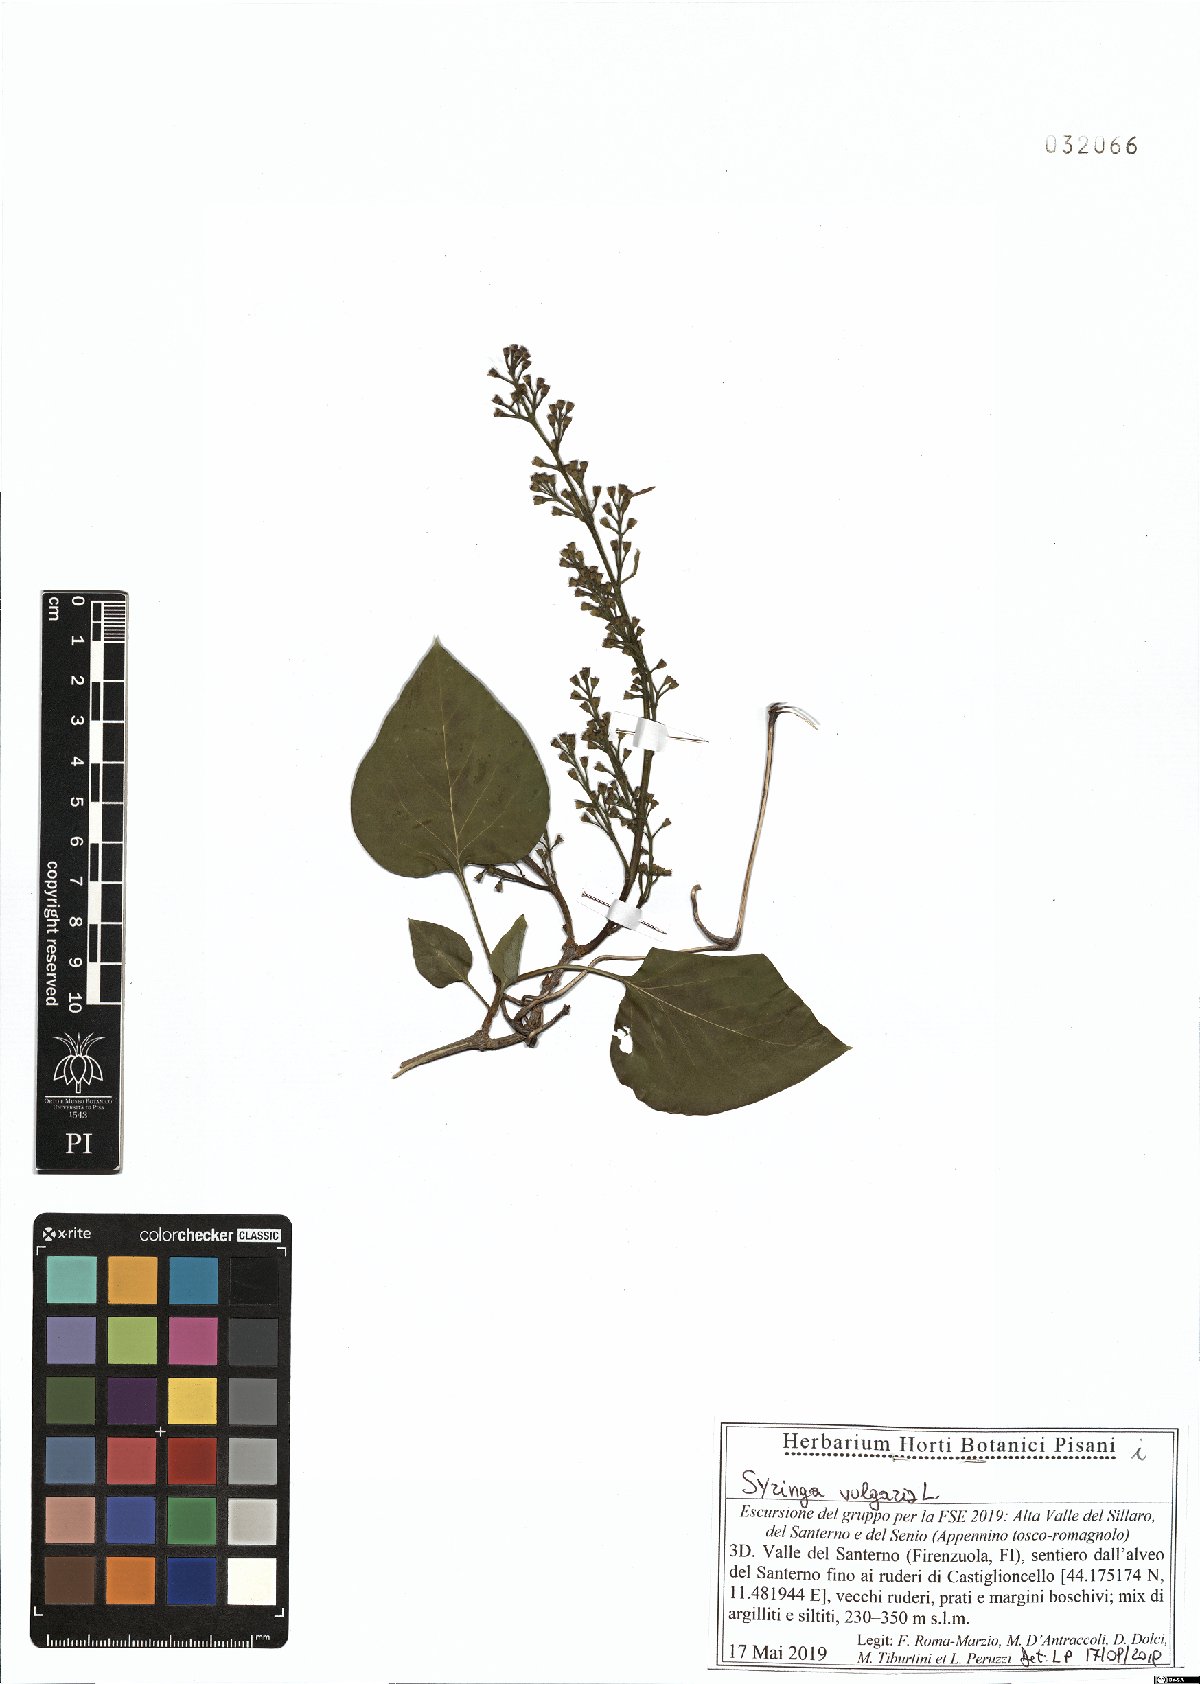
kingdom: Plantae
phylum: Tracheophyta
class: Magnoliopsida
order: Lamiales
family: Oleaceae
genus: Syringa
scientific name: Syringa vulgaris
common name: Common lilac
